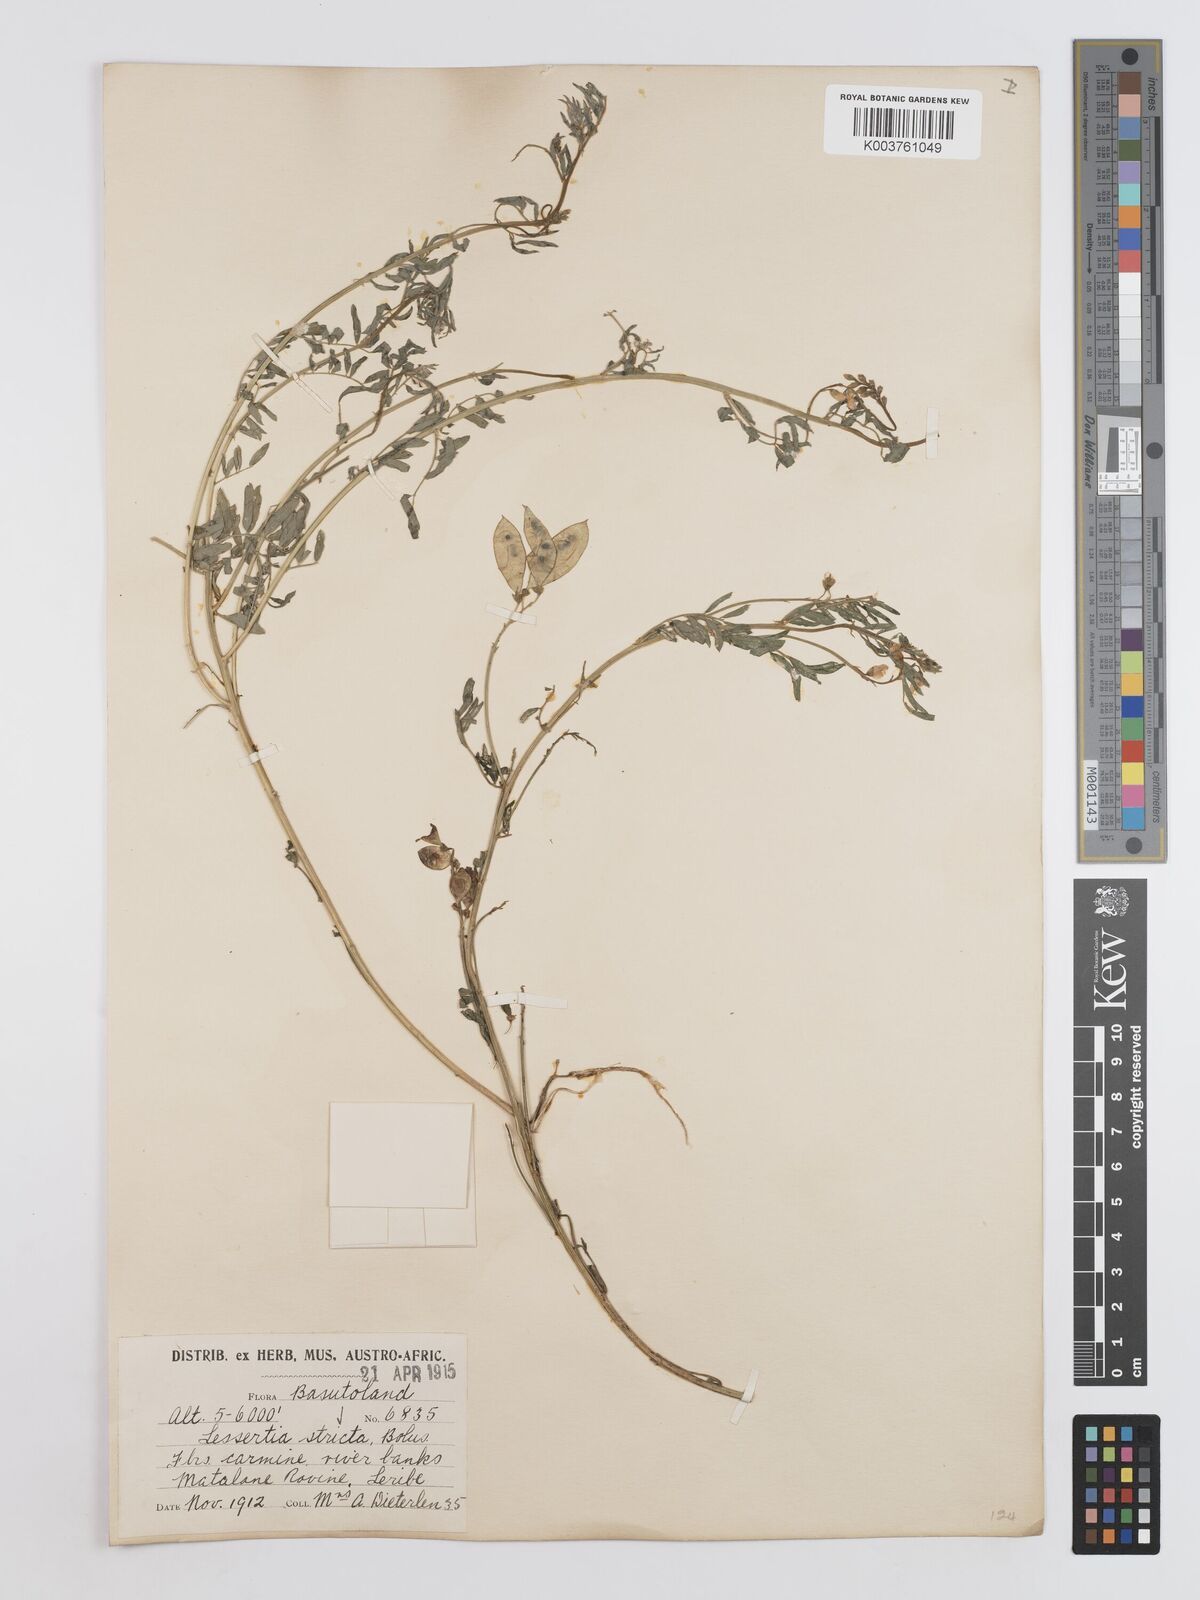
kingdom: Plantae
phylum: Tracheophyta
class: Magnoliopsida
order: Fabales
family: Fabaceae
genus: Lessertia
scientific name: Lessertia stricta
